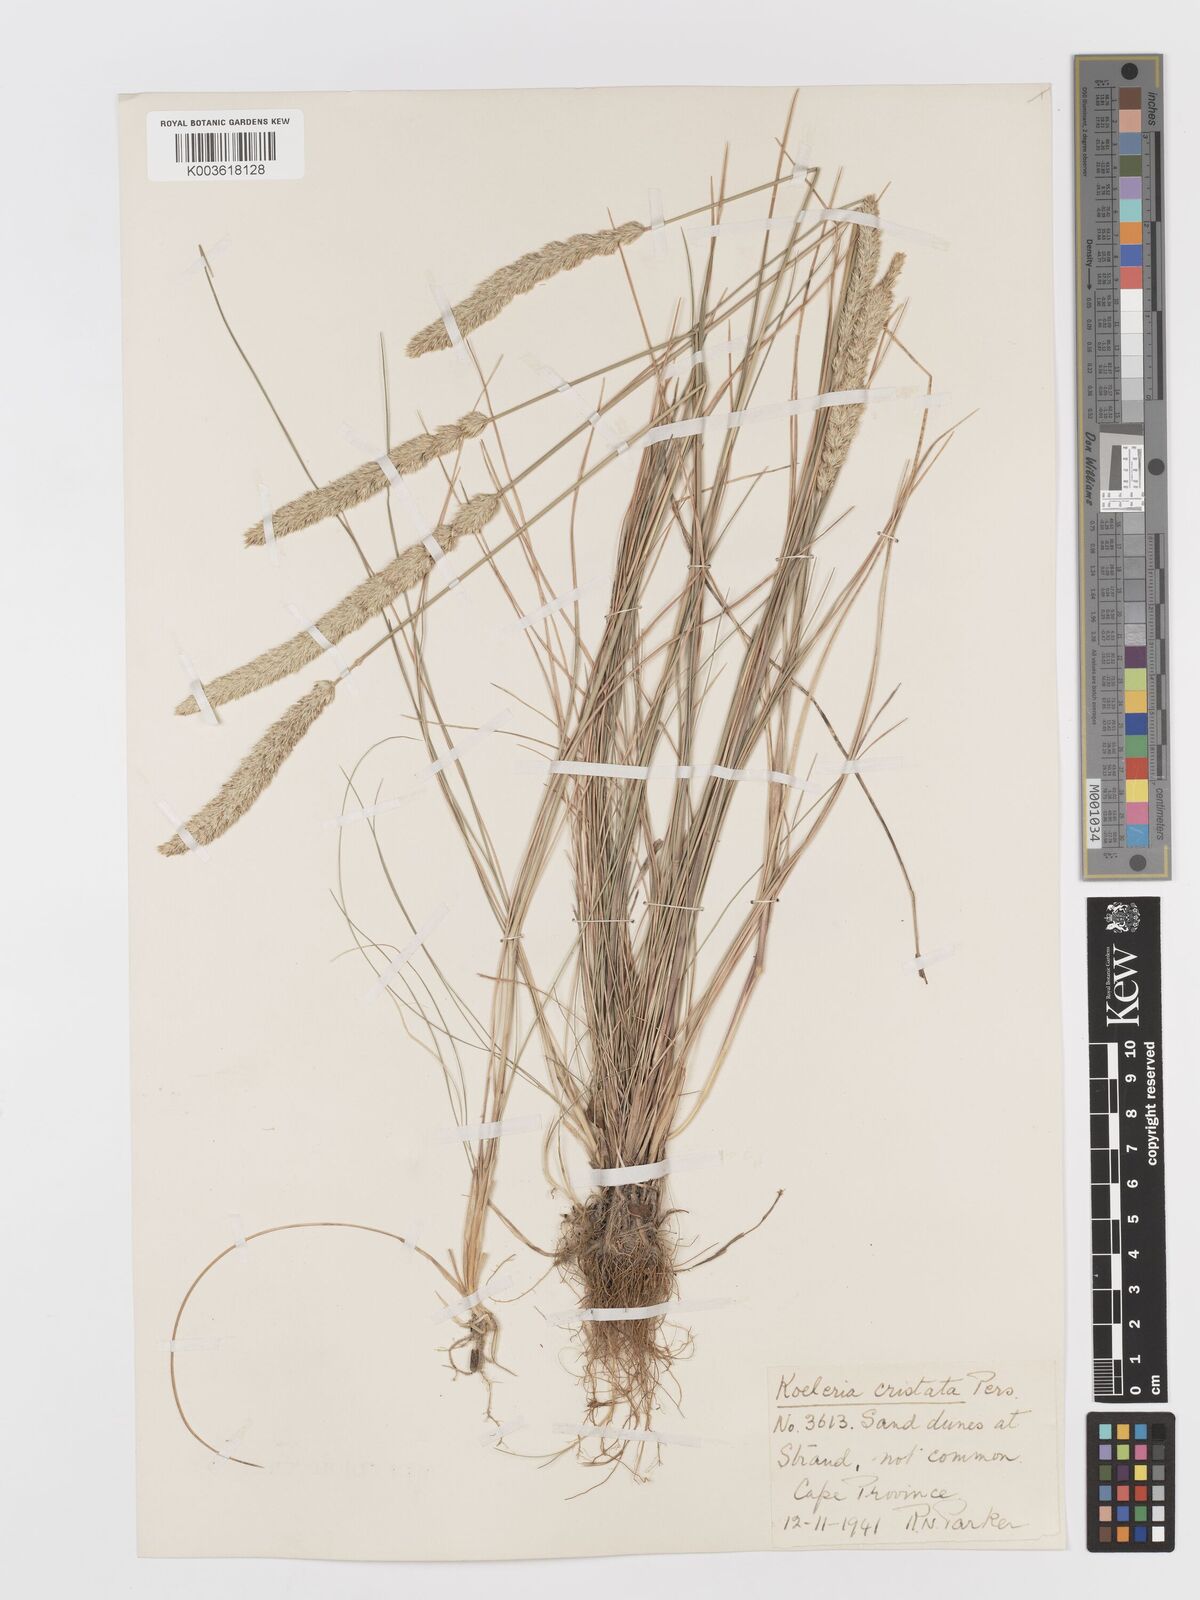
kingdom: Plantae
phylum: Tracheophyta
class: Liliopsida
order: Poales
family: Poaceae
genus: Koeleria
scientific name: Koeleria capensis
